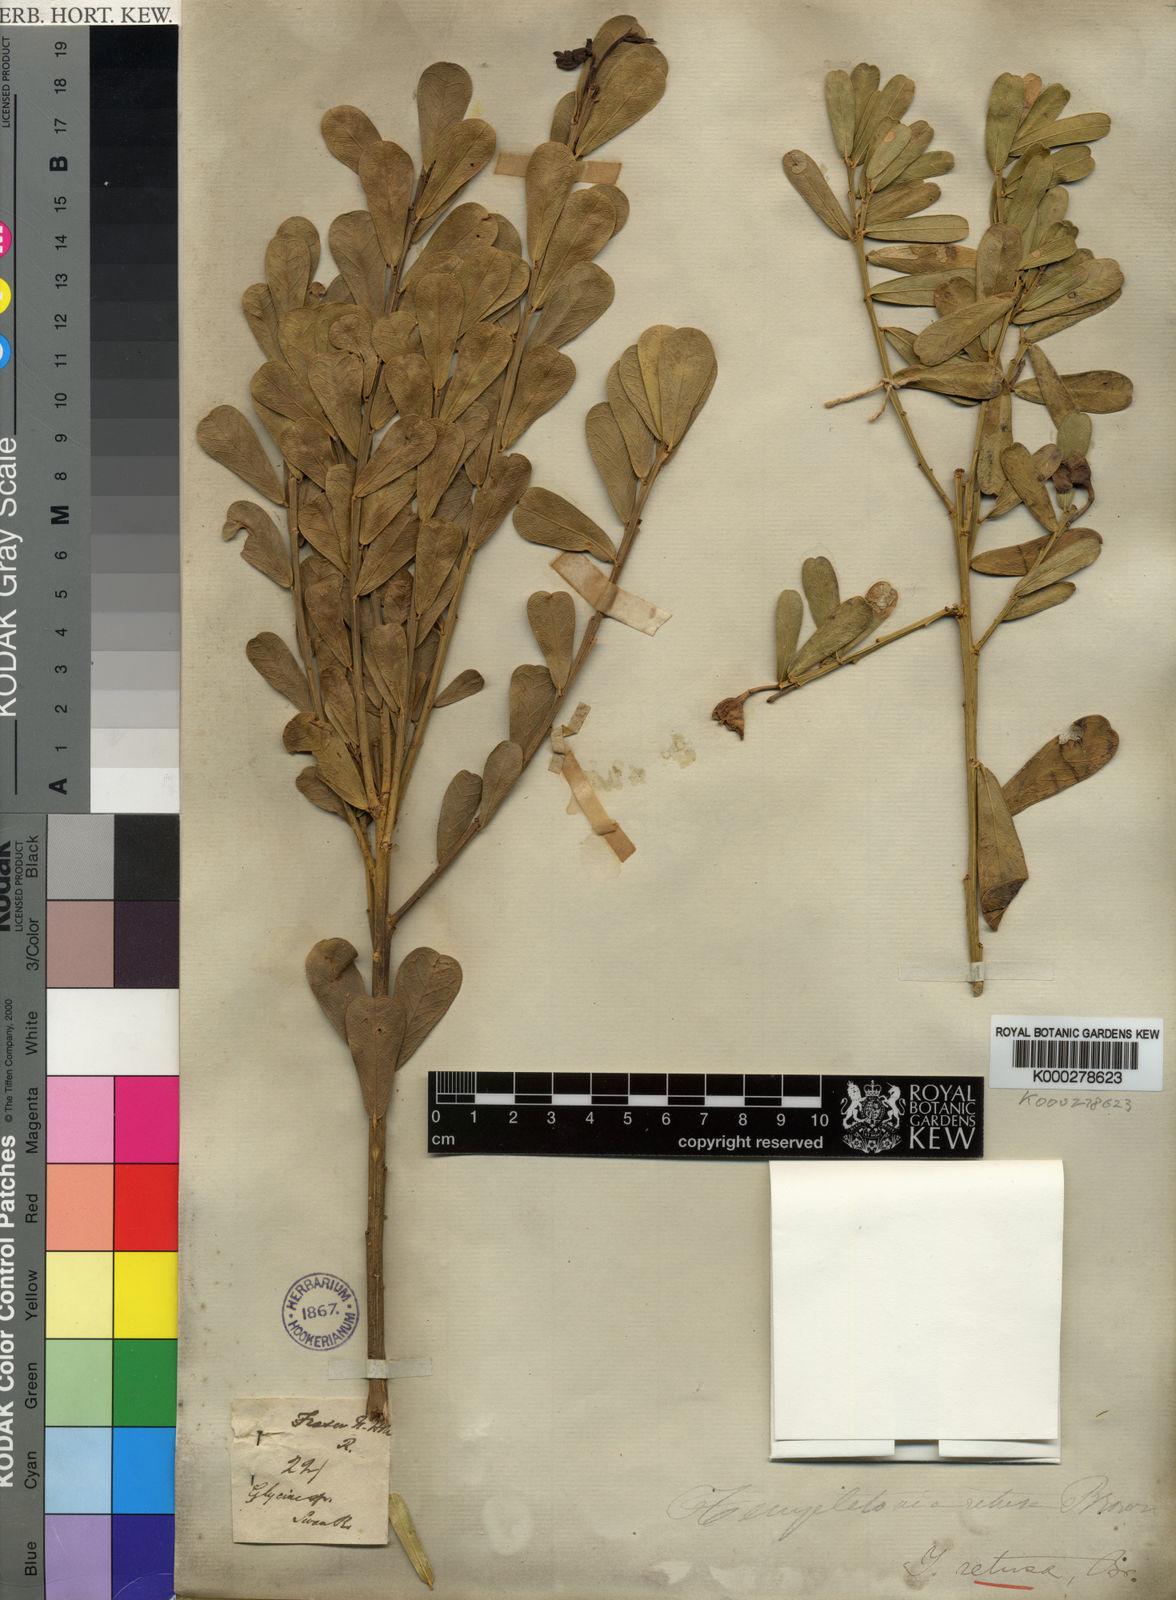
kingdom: Plantae
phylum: Tracheophyta
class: Magnoliopsida
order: Fabales
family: Fabaceae
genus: Templetonia
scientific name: Templetonia retusa
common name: Cockies'-tongue
